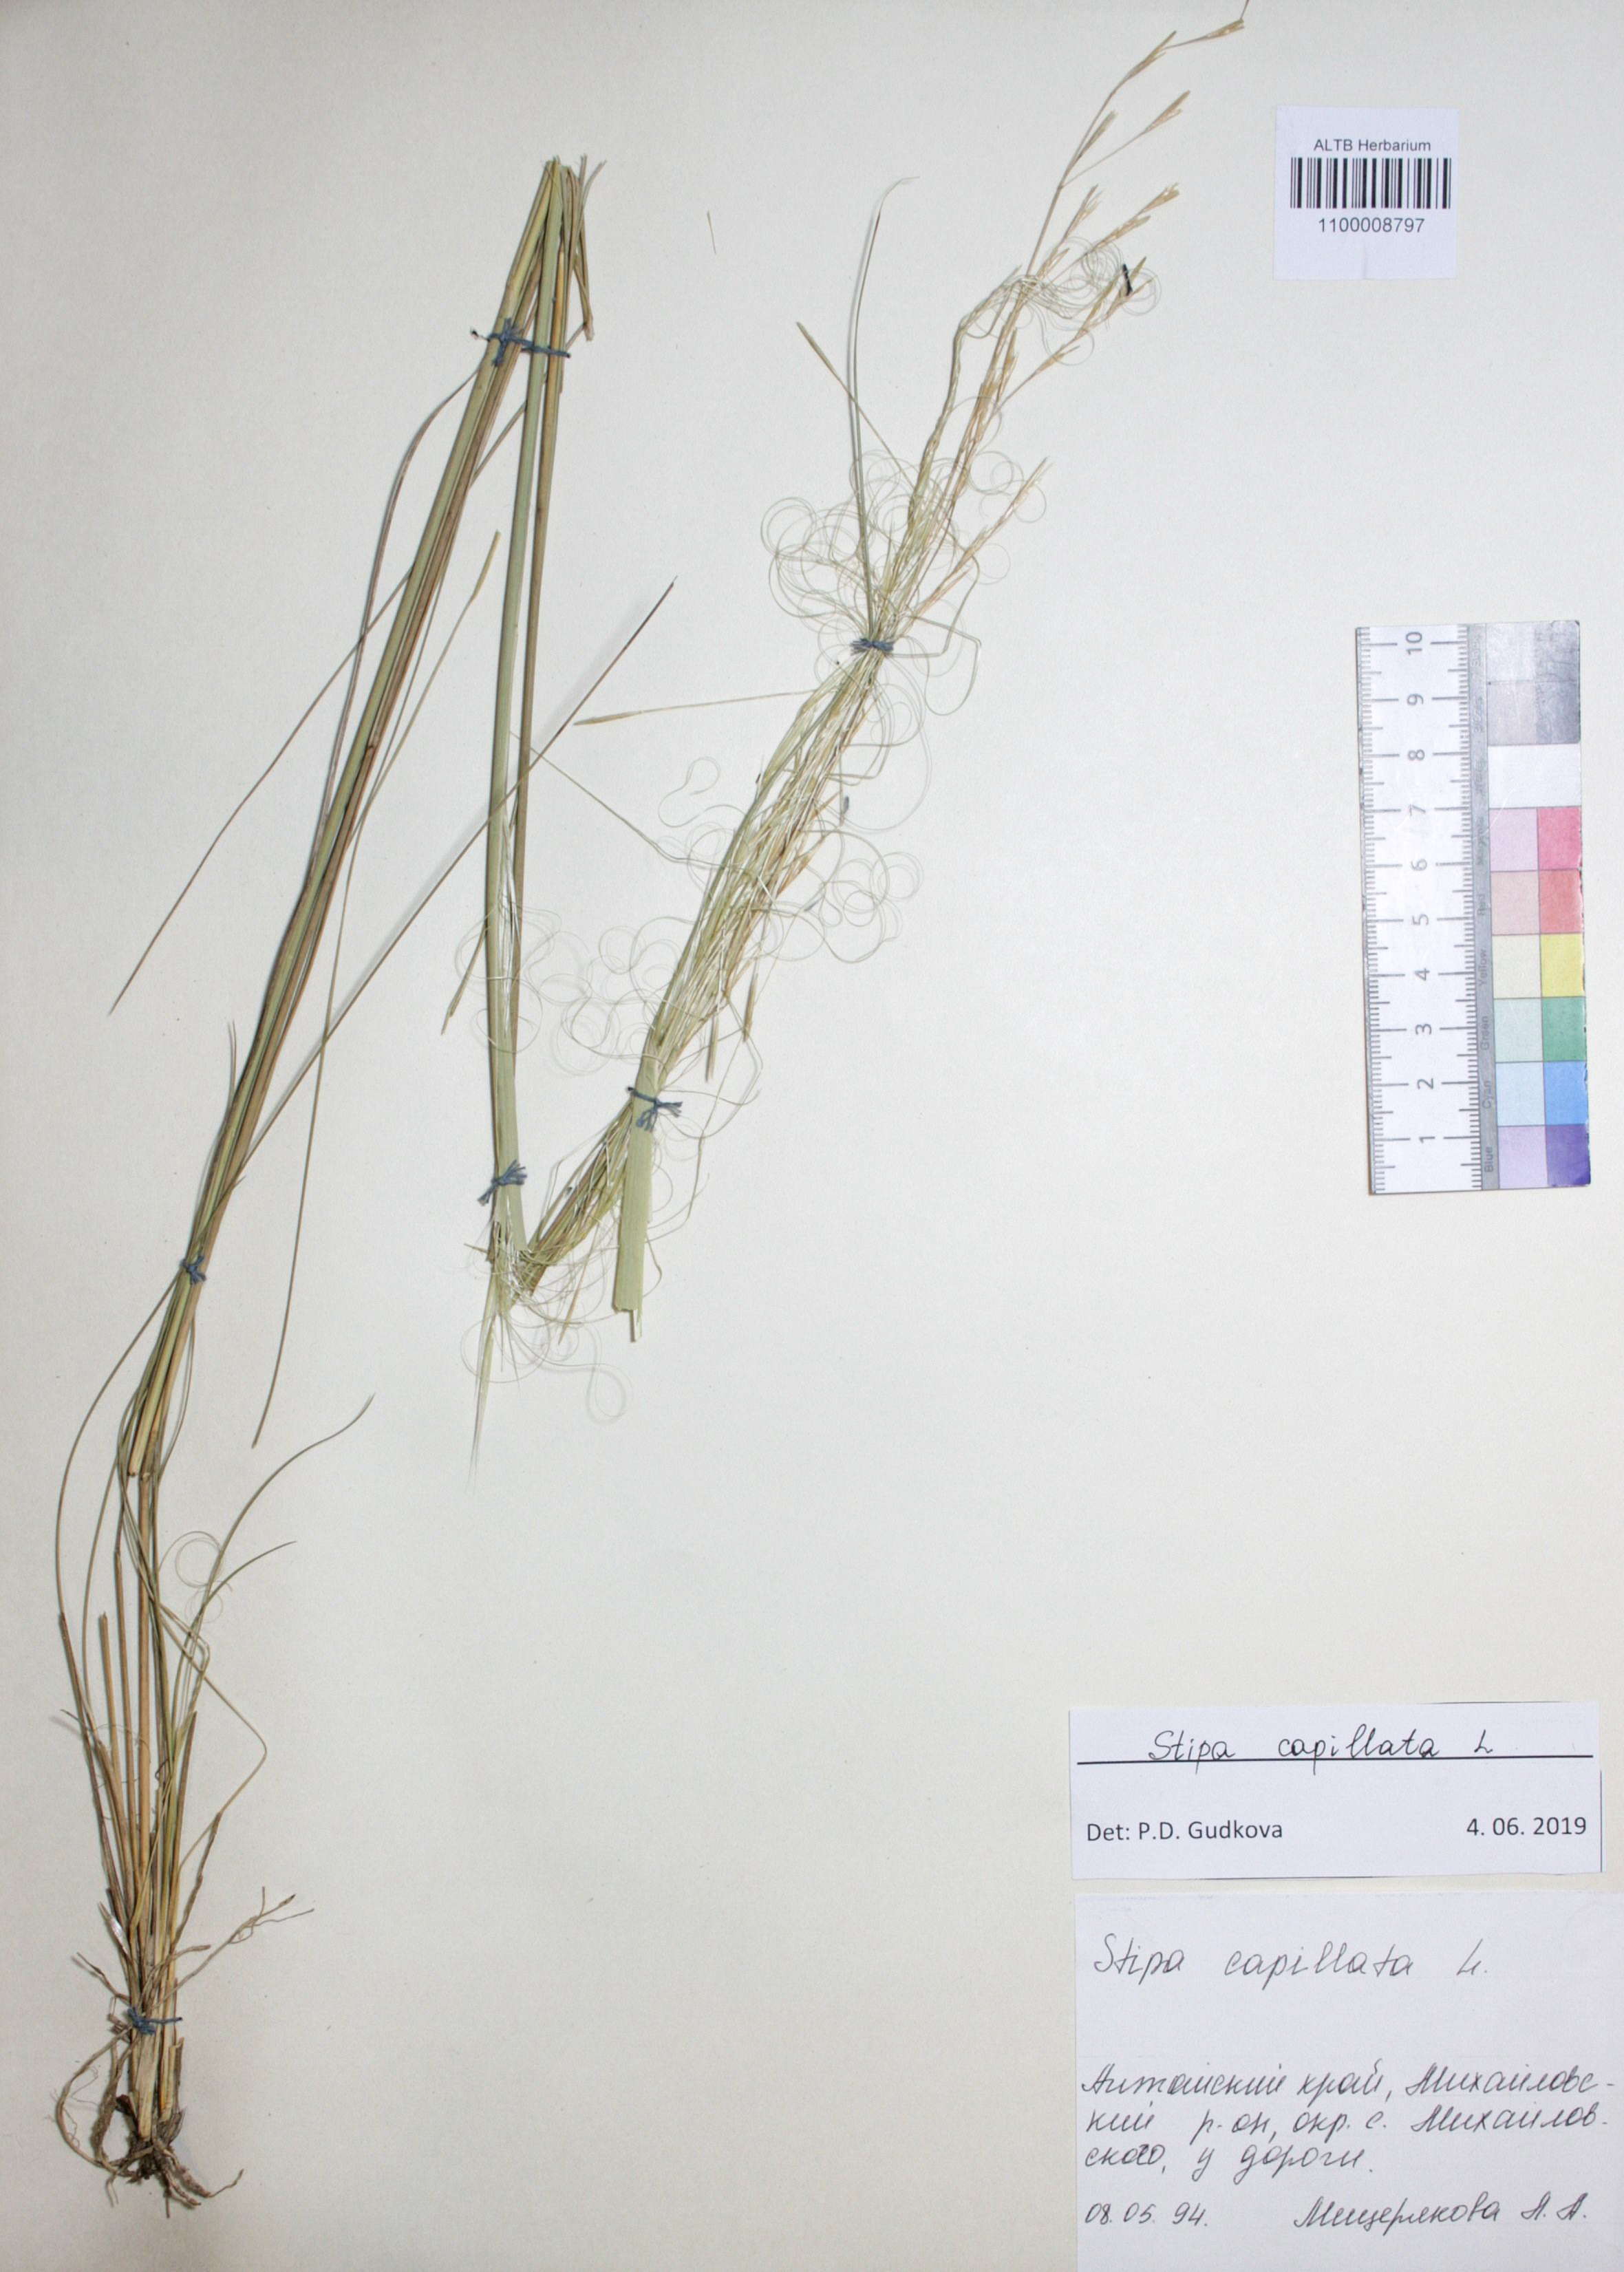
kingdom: Plantae
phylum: Tracheophyta
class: Liliopsida
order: Poales
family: Poaceae
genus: Stipa
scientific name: Stipa capillata
